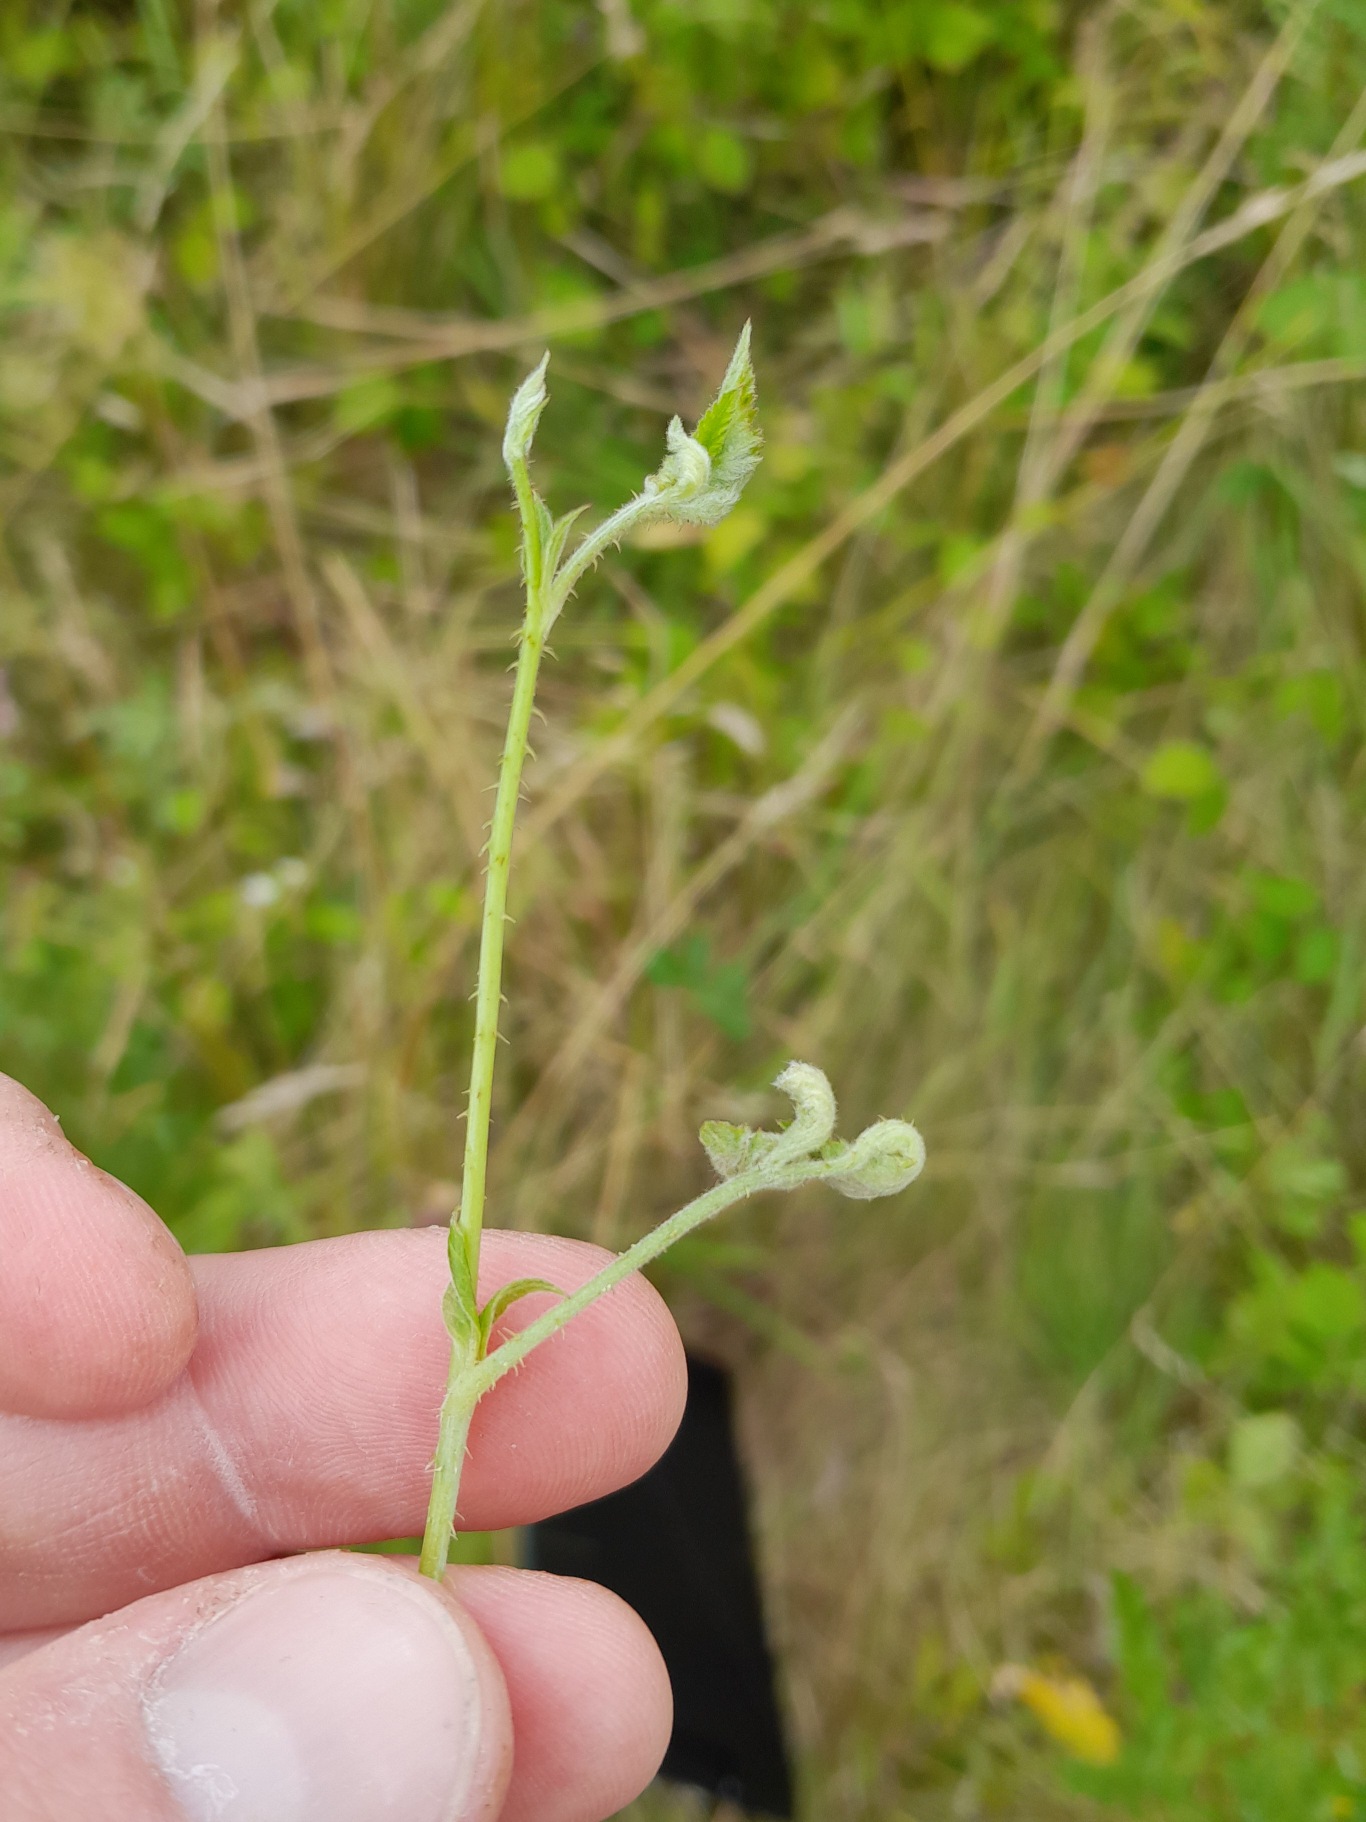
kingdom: Animalia
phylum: Arthropoda
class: Insecta
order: Diptera
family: Cecidomyiidae
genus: Dasineura
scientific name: Dasineura plicatrix
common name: Brombærbladgalmyg
